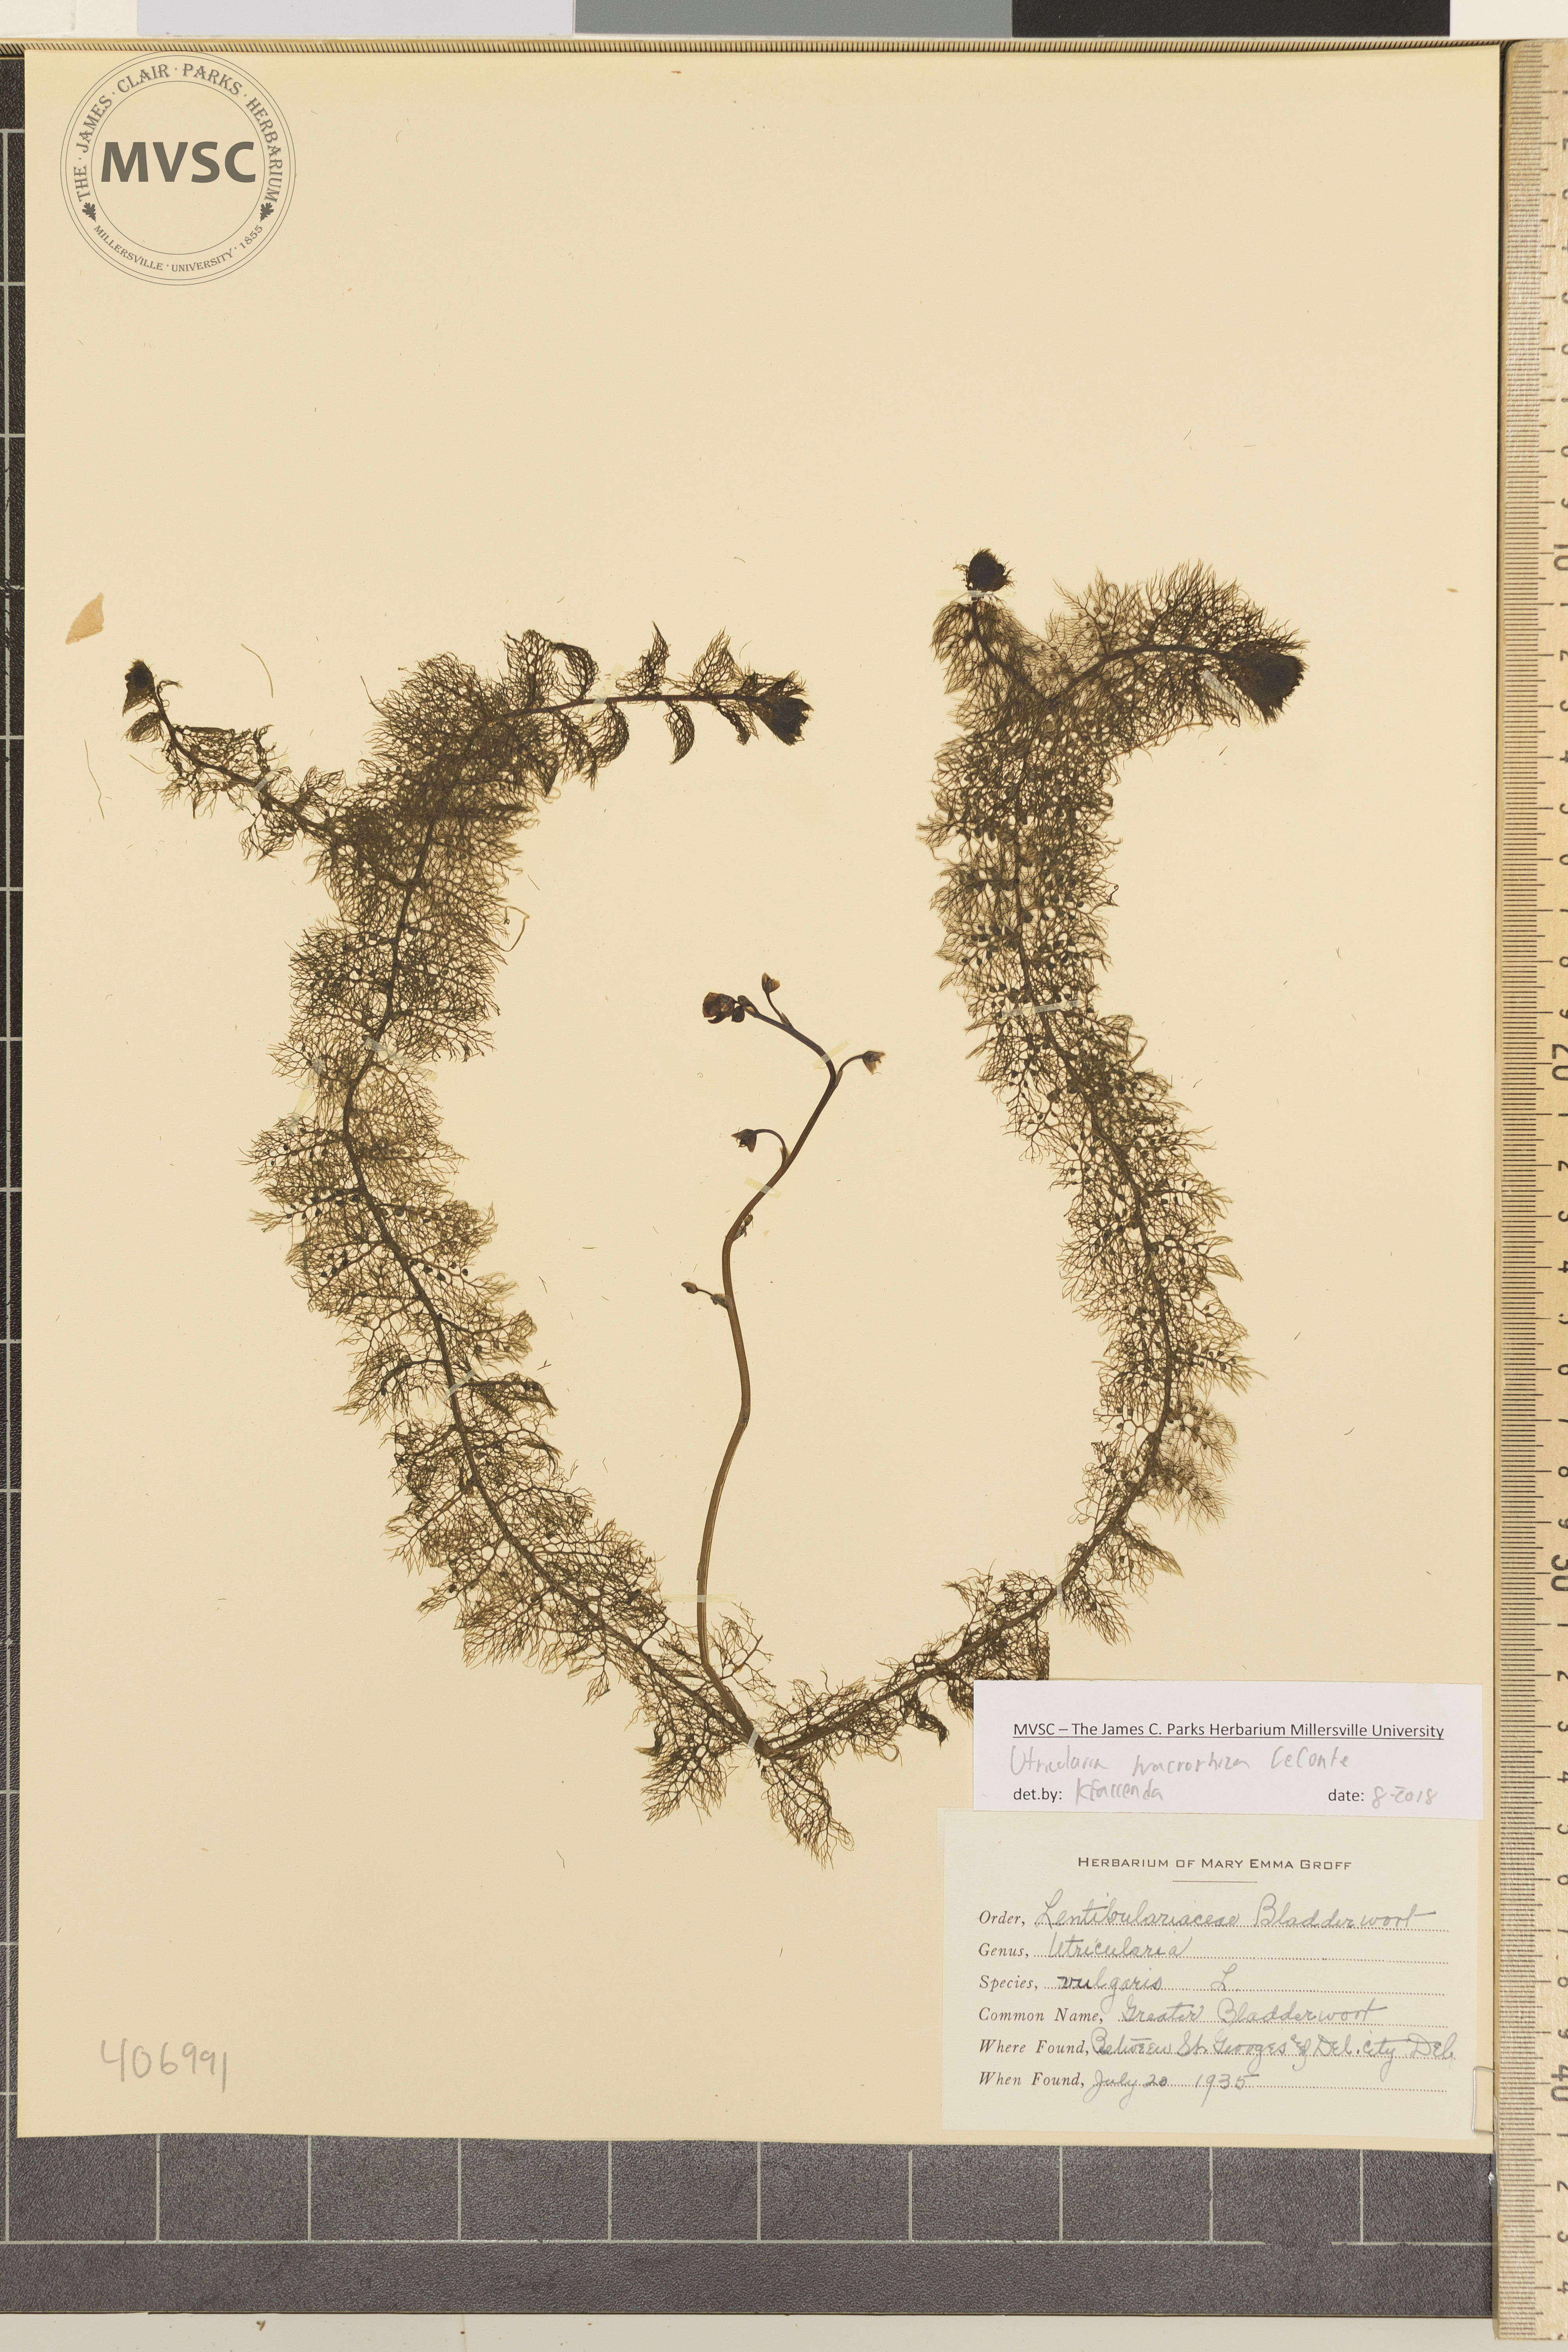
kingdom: Plantae
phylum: Tracheophyta
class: Magnoliopsida
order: Lamiales
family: Lentibulariaceae
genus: Utricularia
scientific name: Utricularia macrorhiza
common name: Greater Bladderwort
